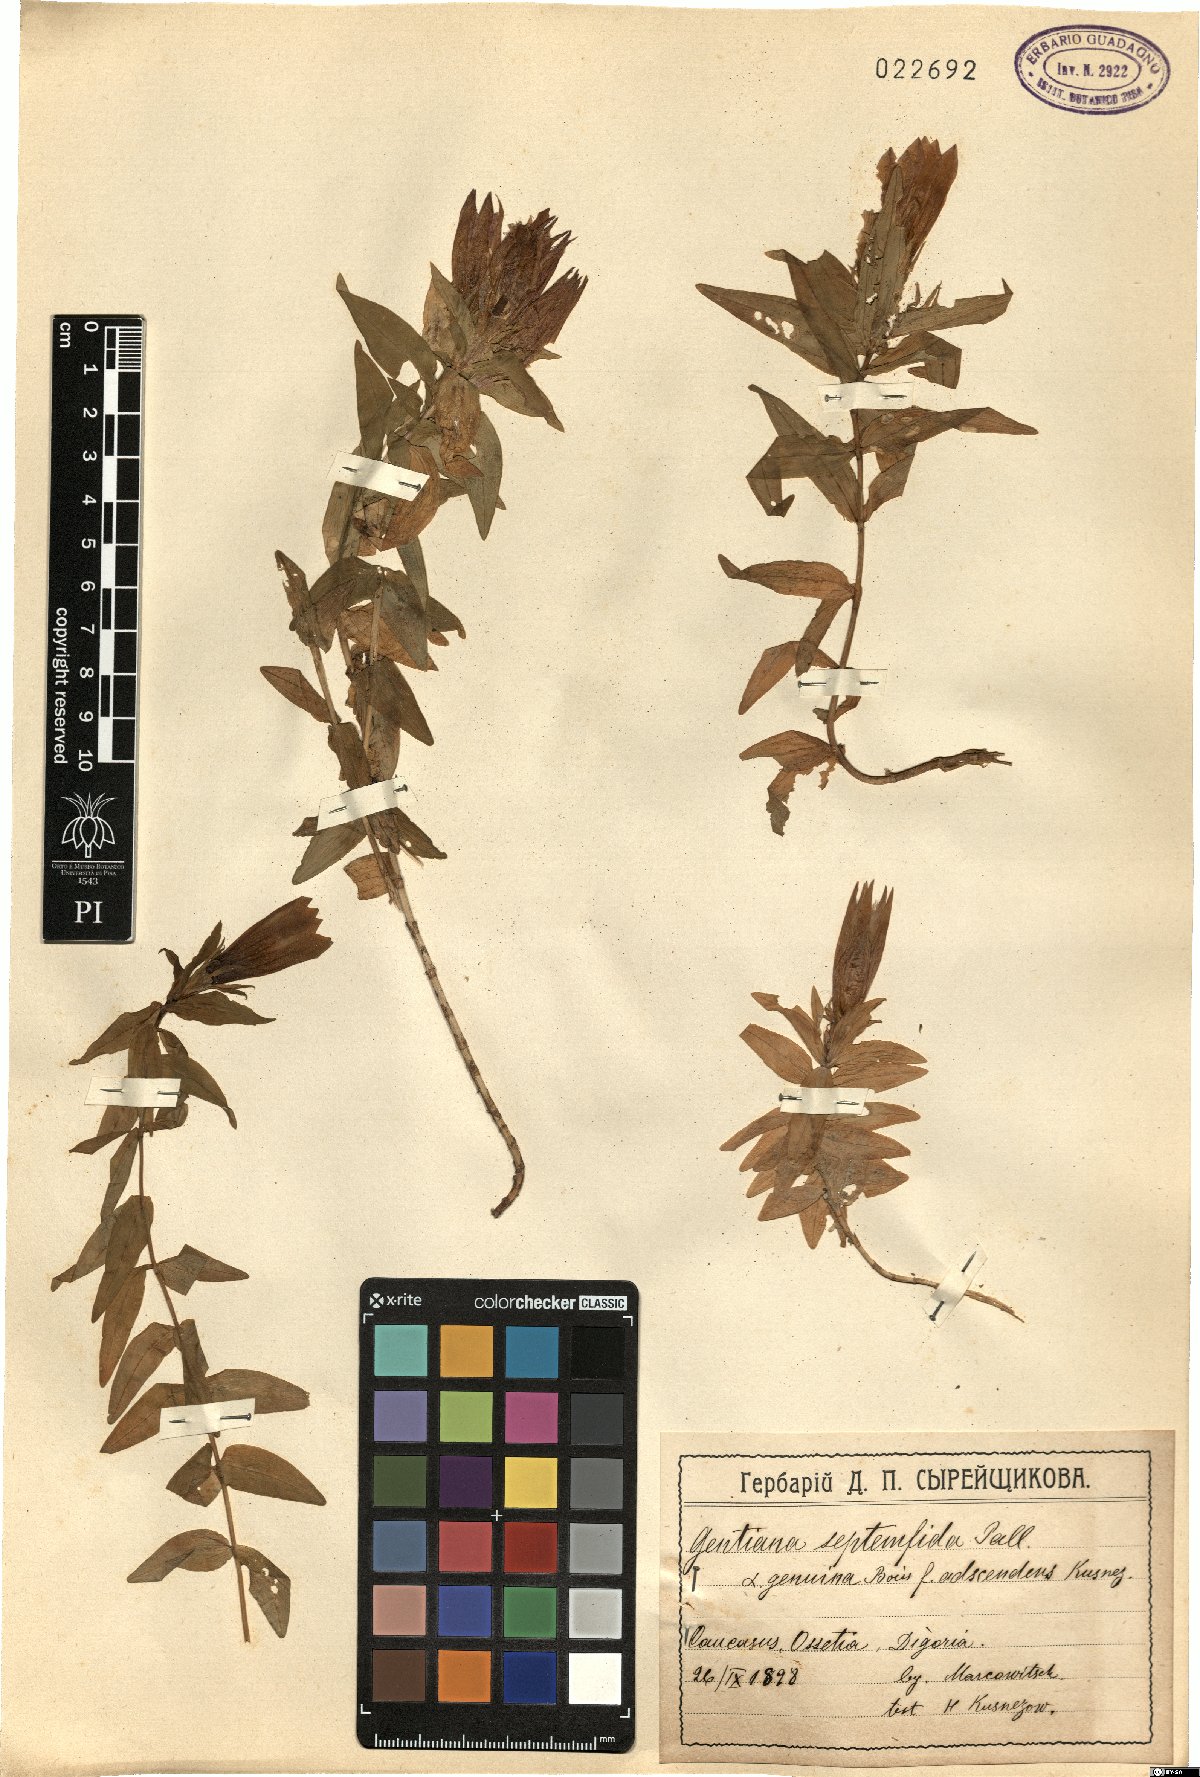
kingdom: Plantae
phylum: Tracheophyta
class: Magnoliopsida
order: Gentianales
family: Gentianaceae
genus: Gentiana
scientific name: Gentiana septemfida
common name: Crested gentian
